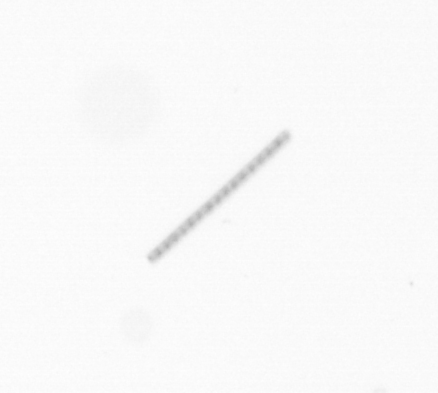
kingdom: Chromista
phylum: Ochrophyta
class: Bacillariophyceae
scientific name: Bacillariophyceae
